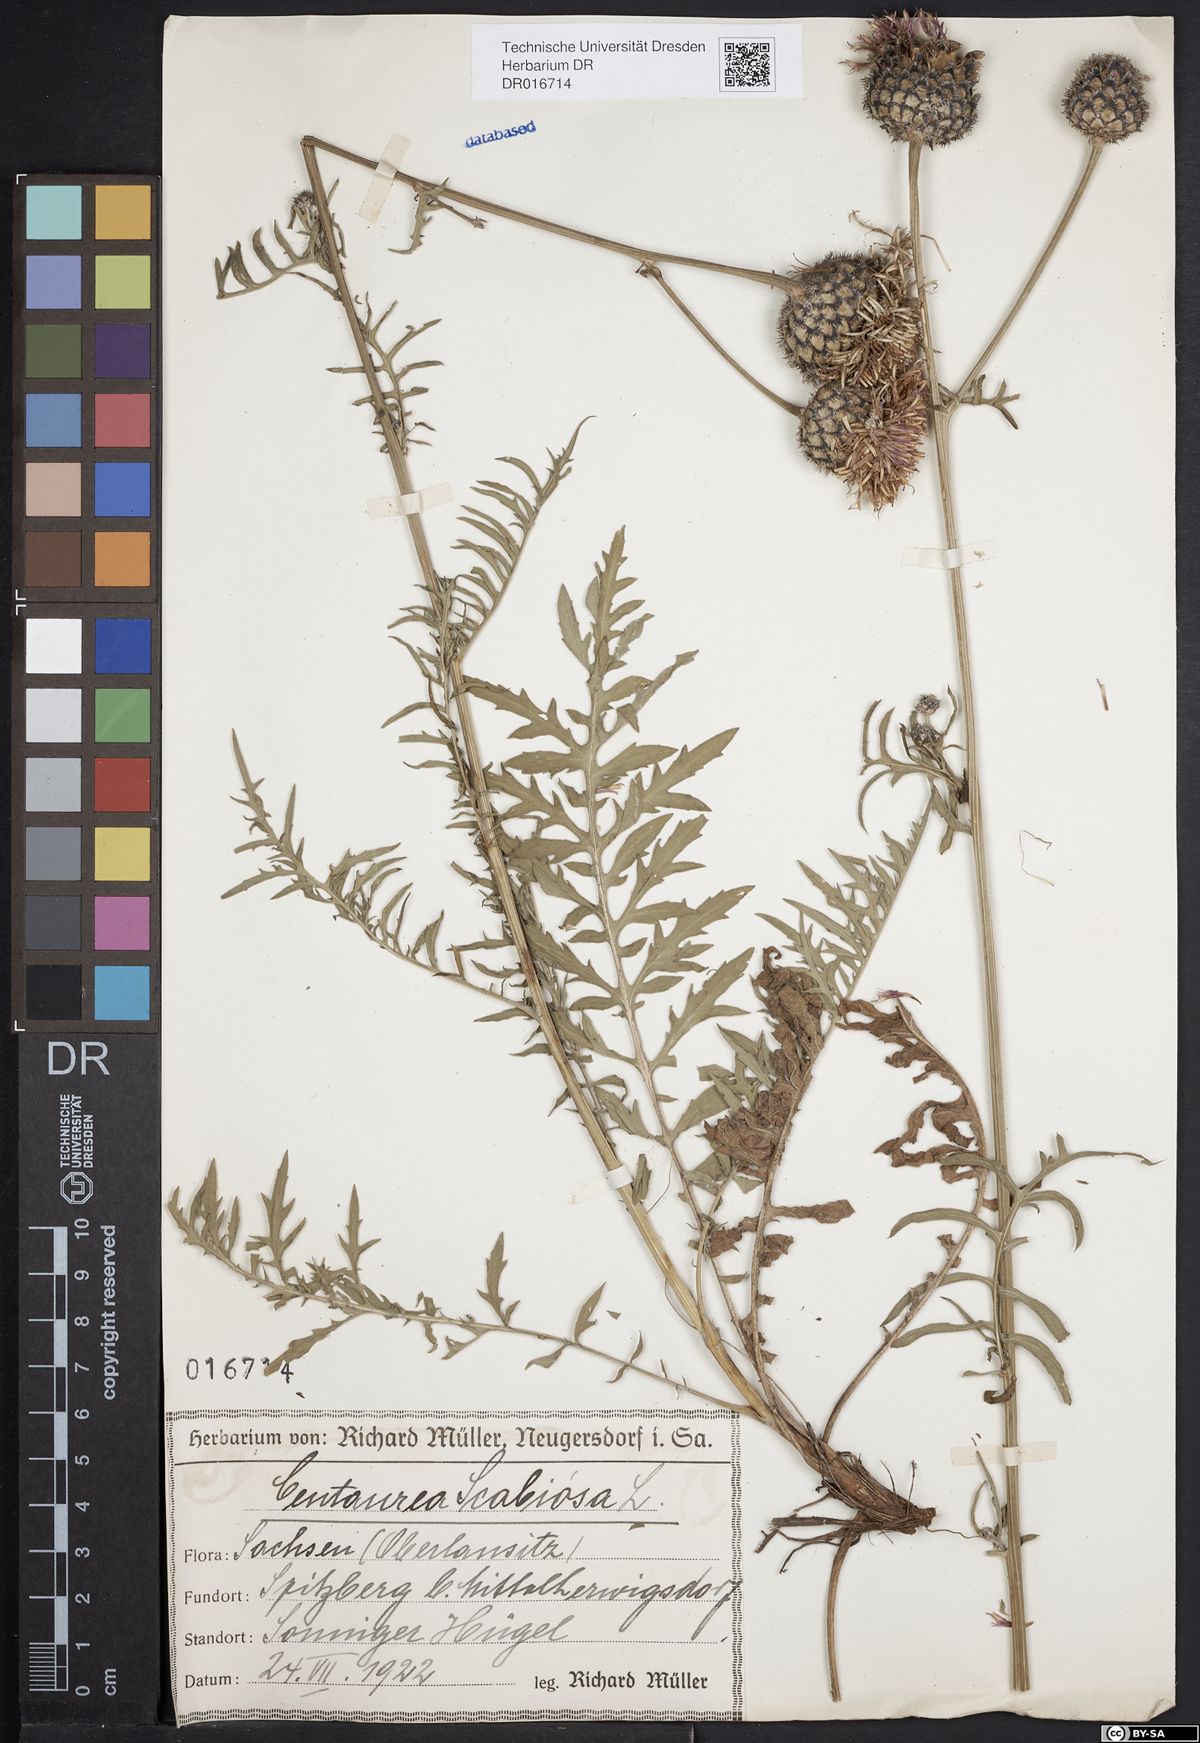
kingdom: Plantae
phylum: Tracheophyta
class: Magnoliopsida
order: Asterales
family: Asteraceae
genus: Centaurea
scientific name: Centaurea scabiosa
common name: Greater knapweed
